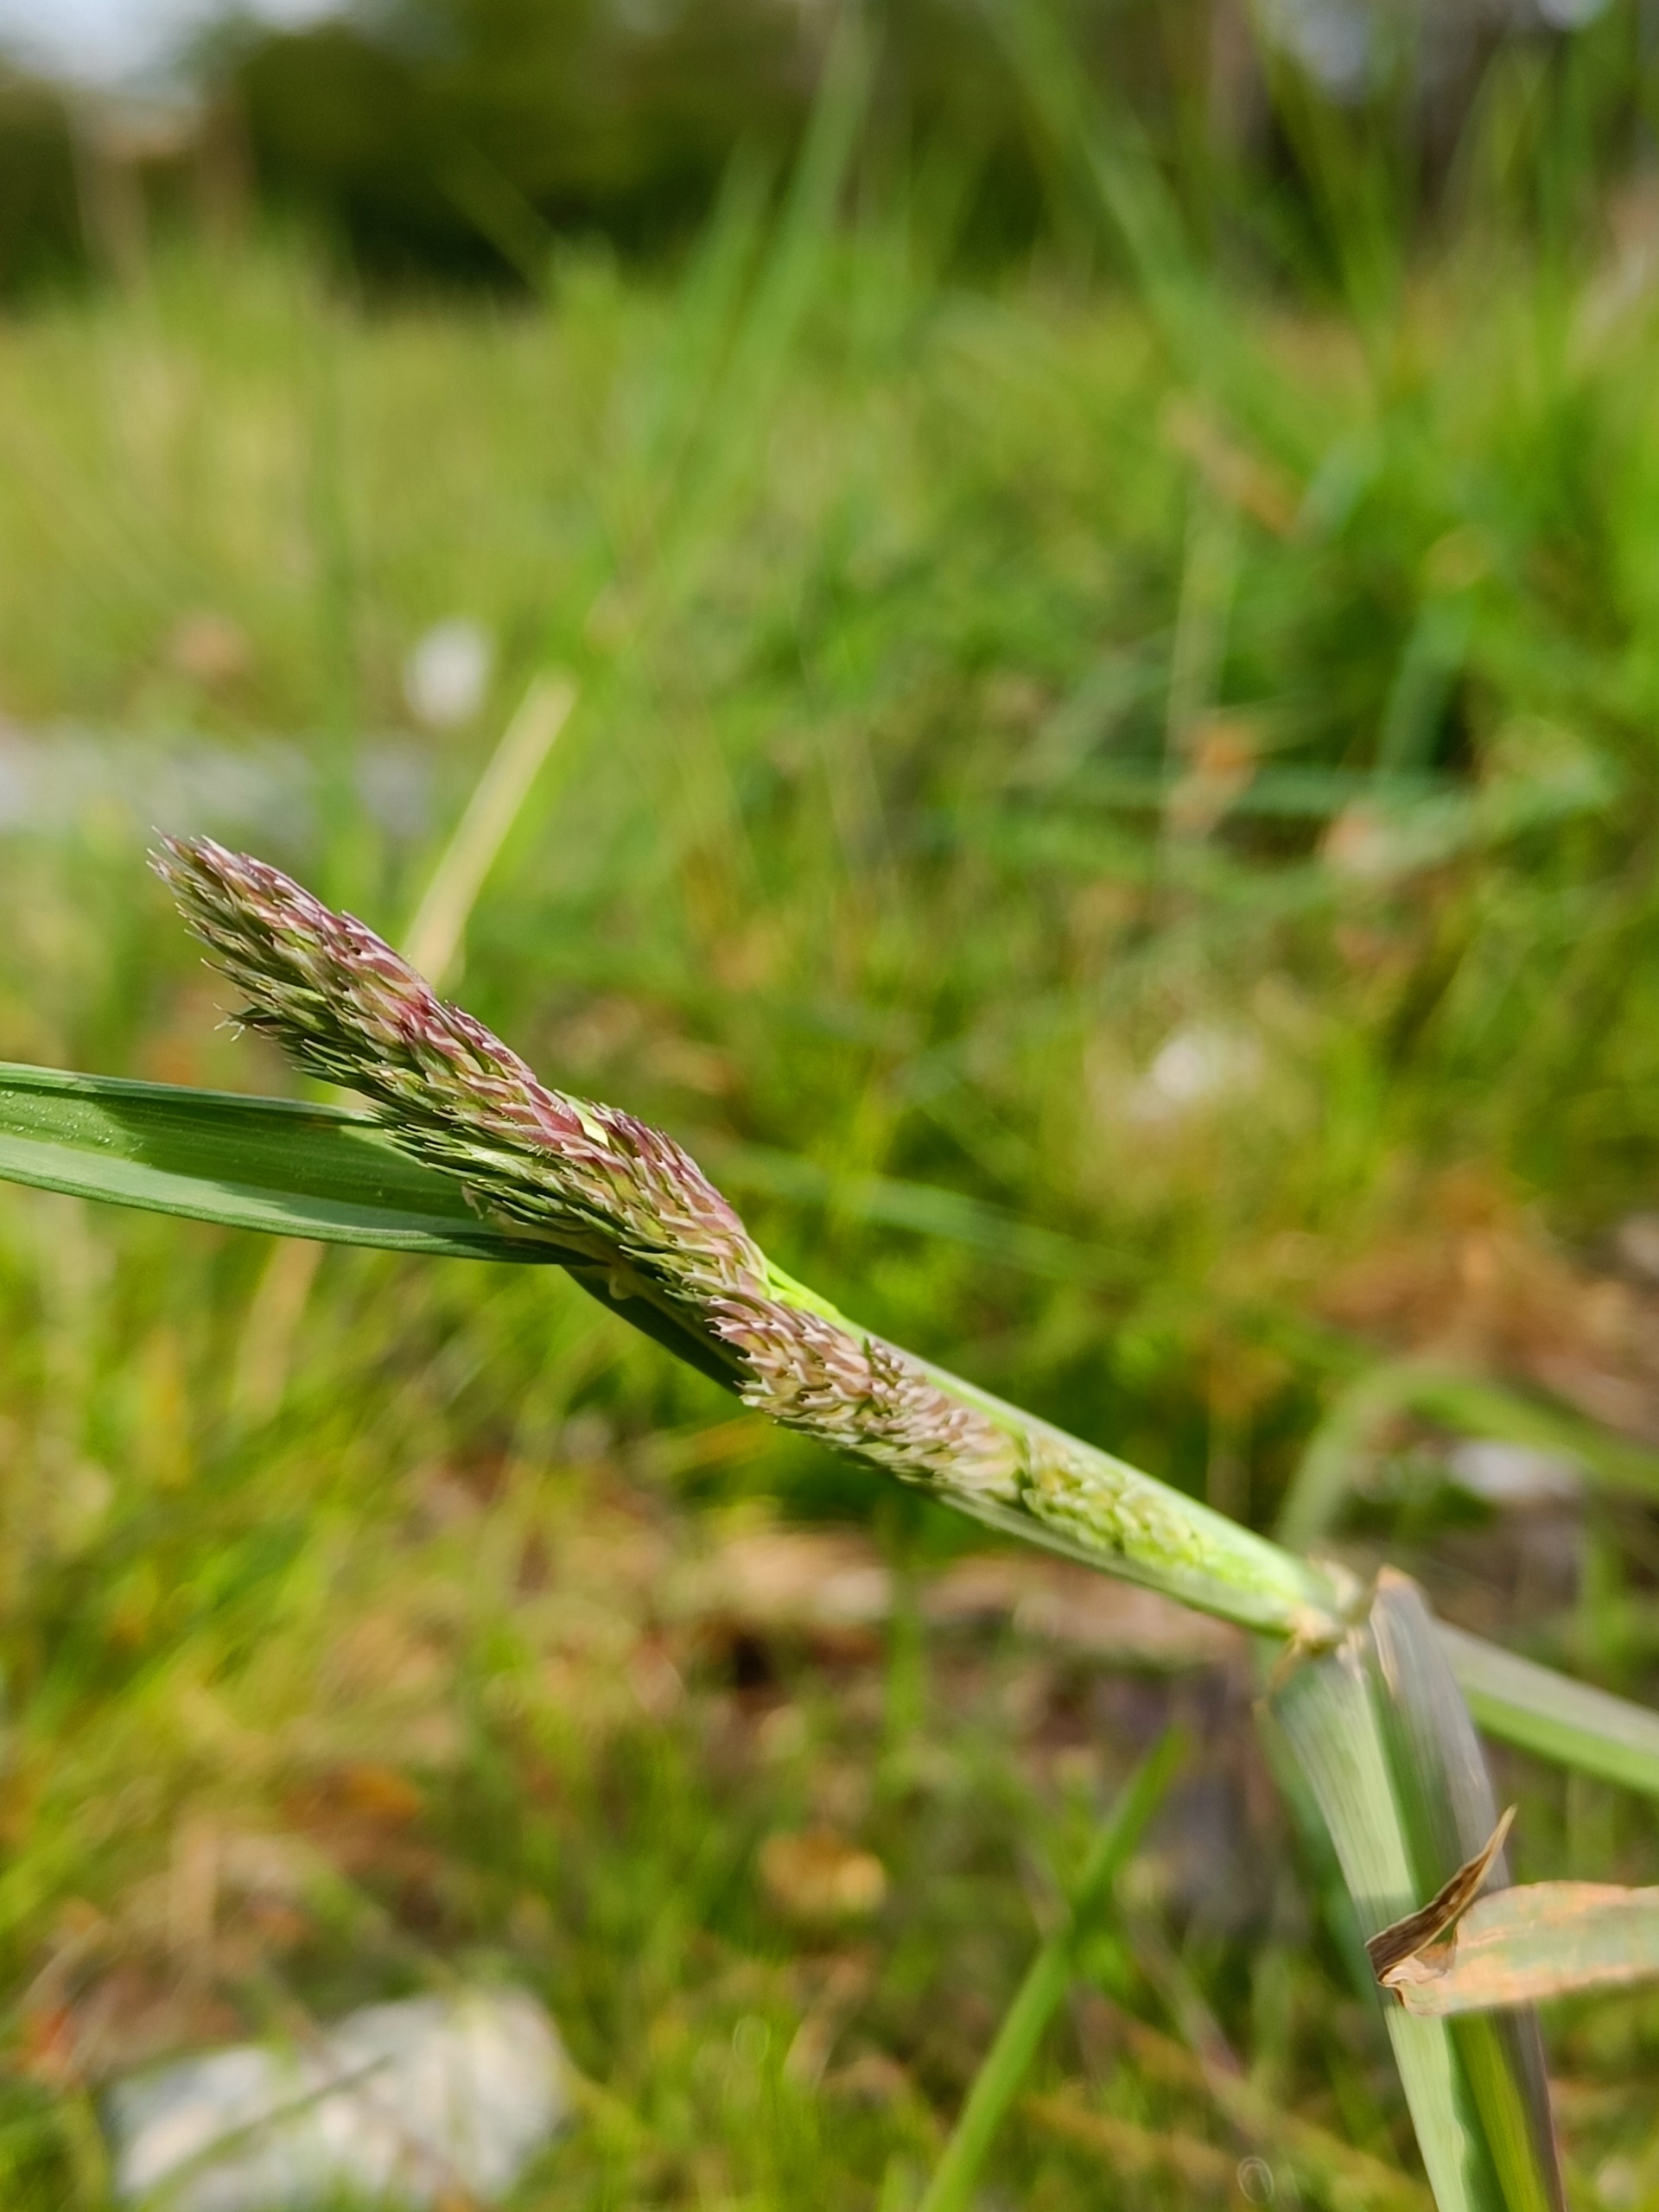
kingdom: Plantae
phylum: Tracheophyta
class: Liliopsida
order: Poales
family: Poaceae
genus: Dactylis
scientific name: Dactylis glomerata
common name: Almindelig hundegræs
